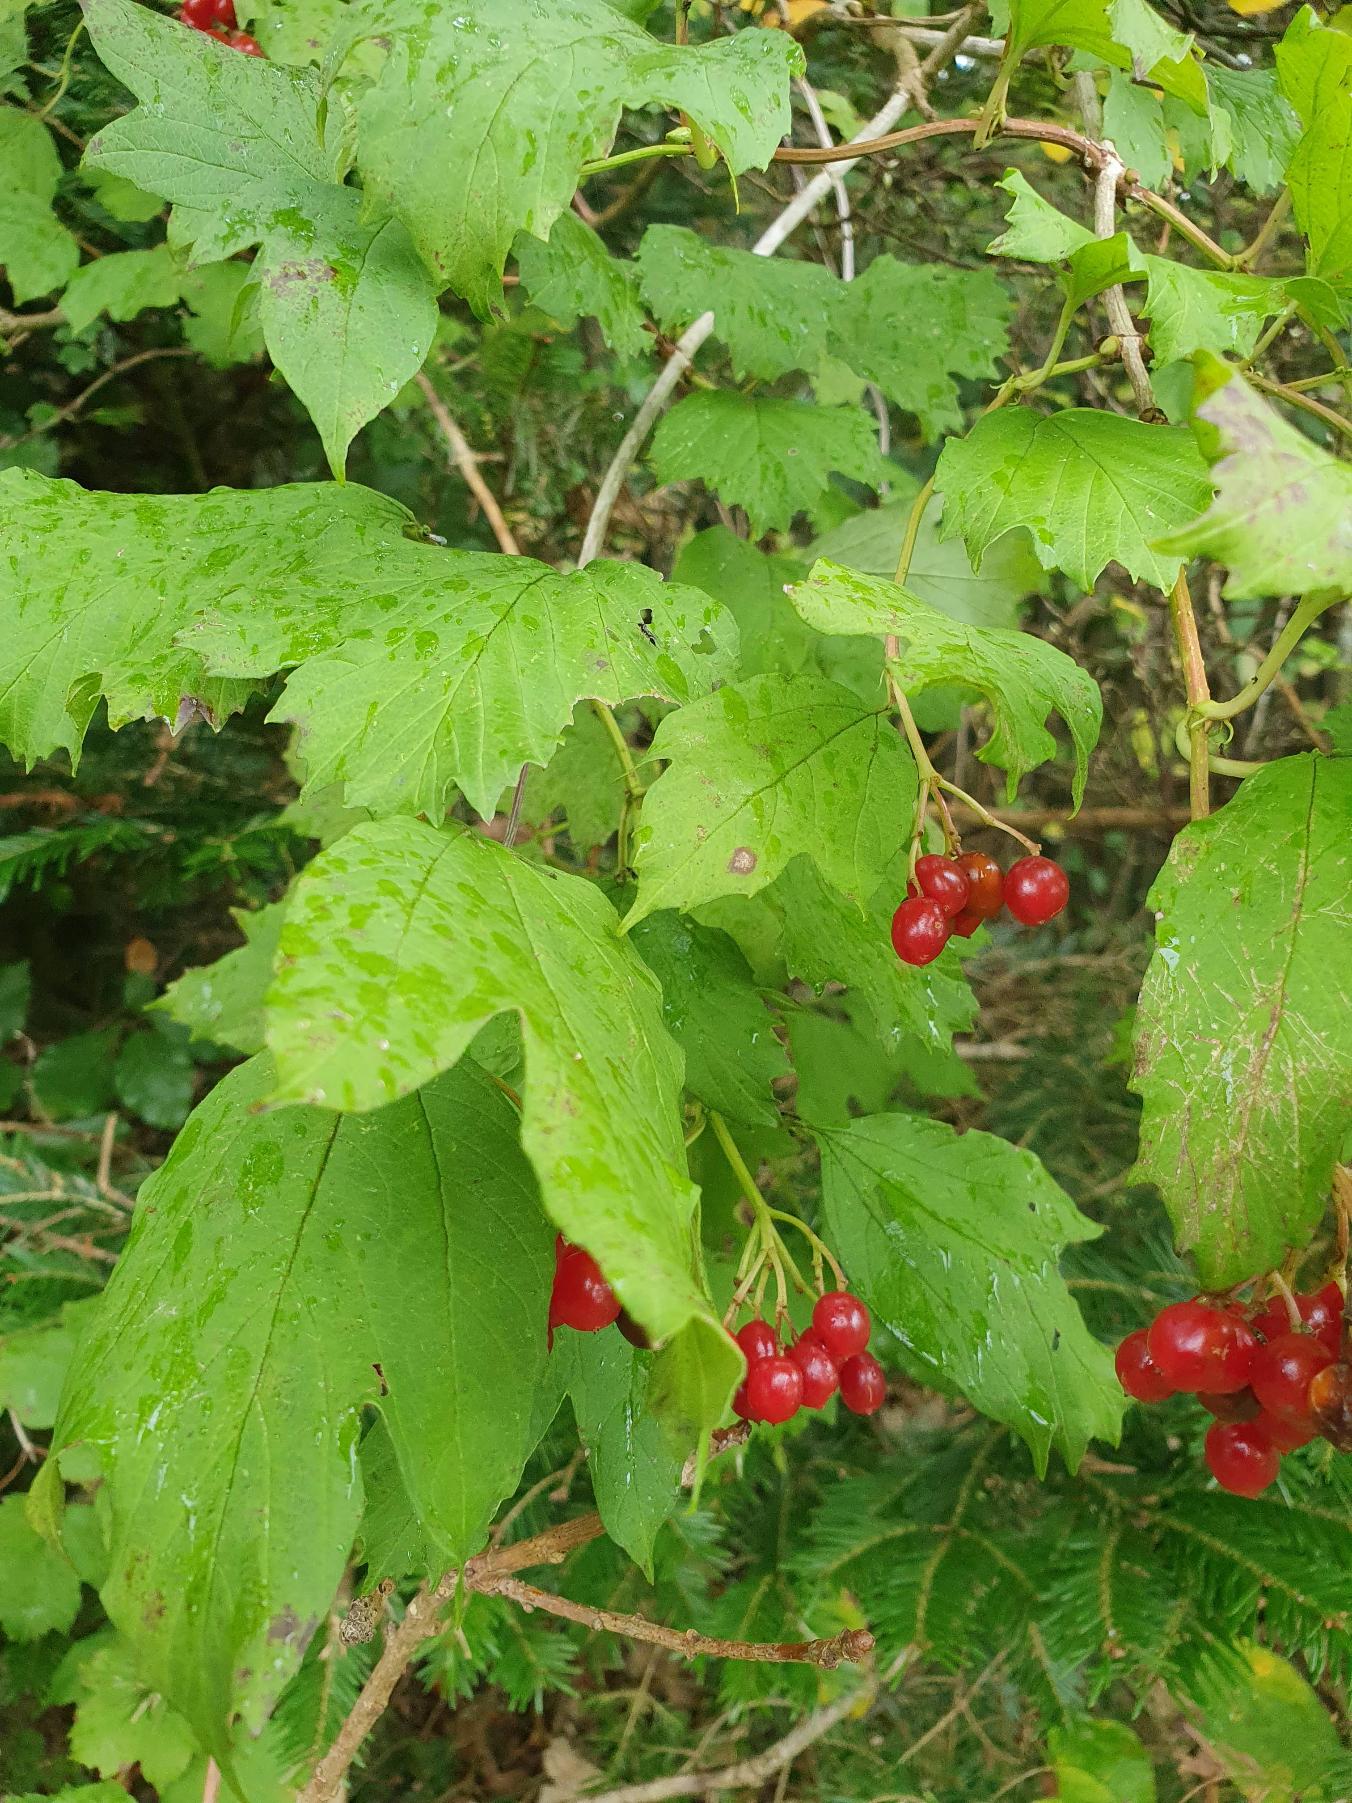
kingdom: Plantae
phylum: Tracheophyta
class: Magnoliopsida
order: Dipsacales
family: Viburnaceae
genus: Viburnum
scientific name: Viburnum opulus
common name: Kvalkved
